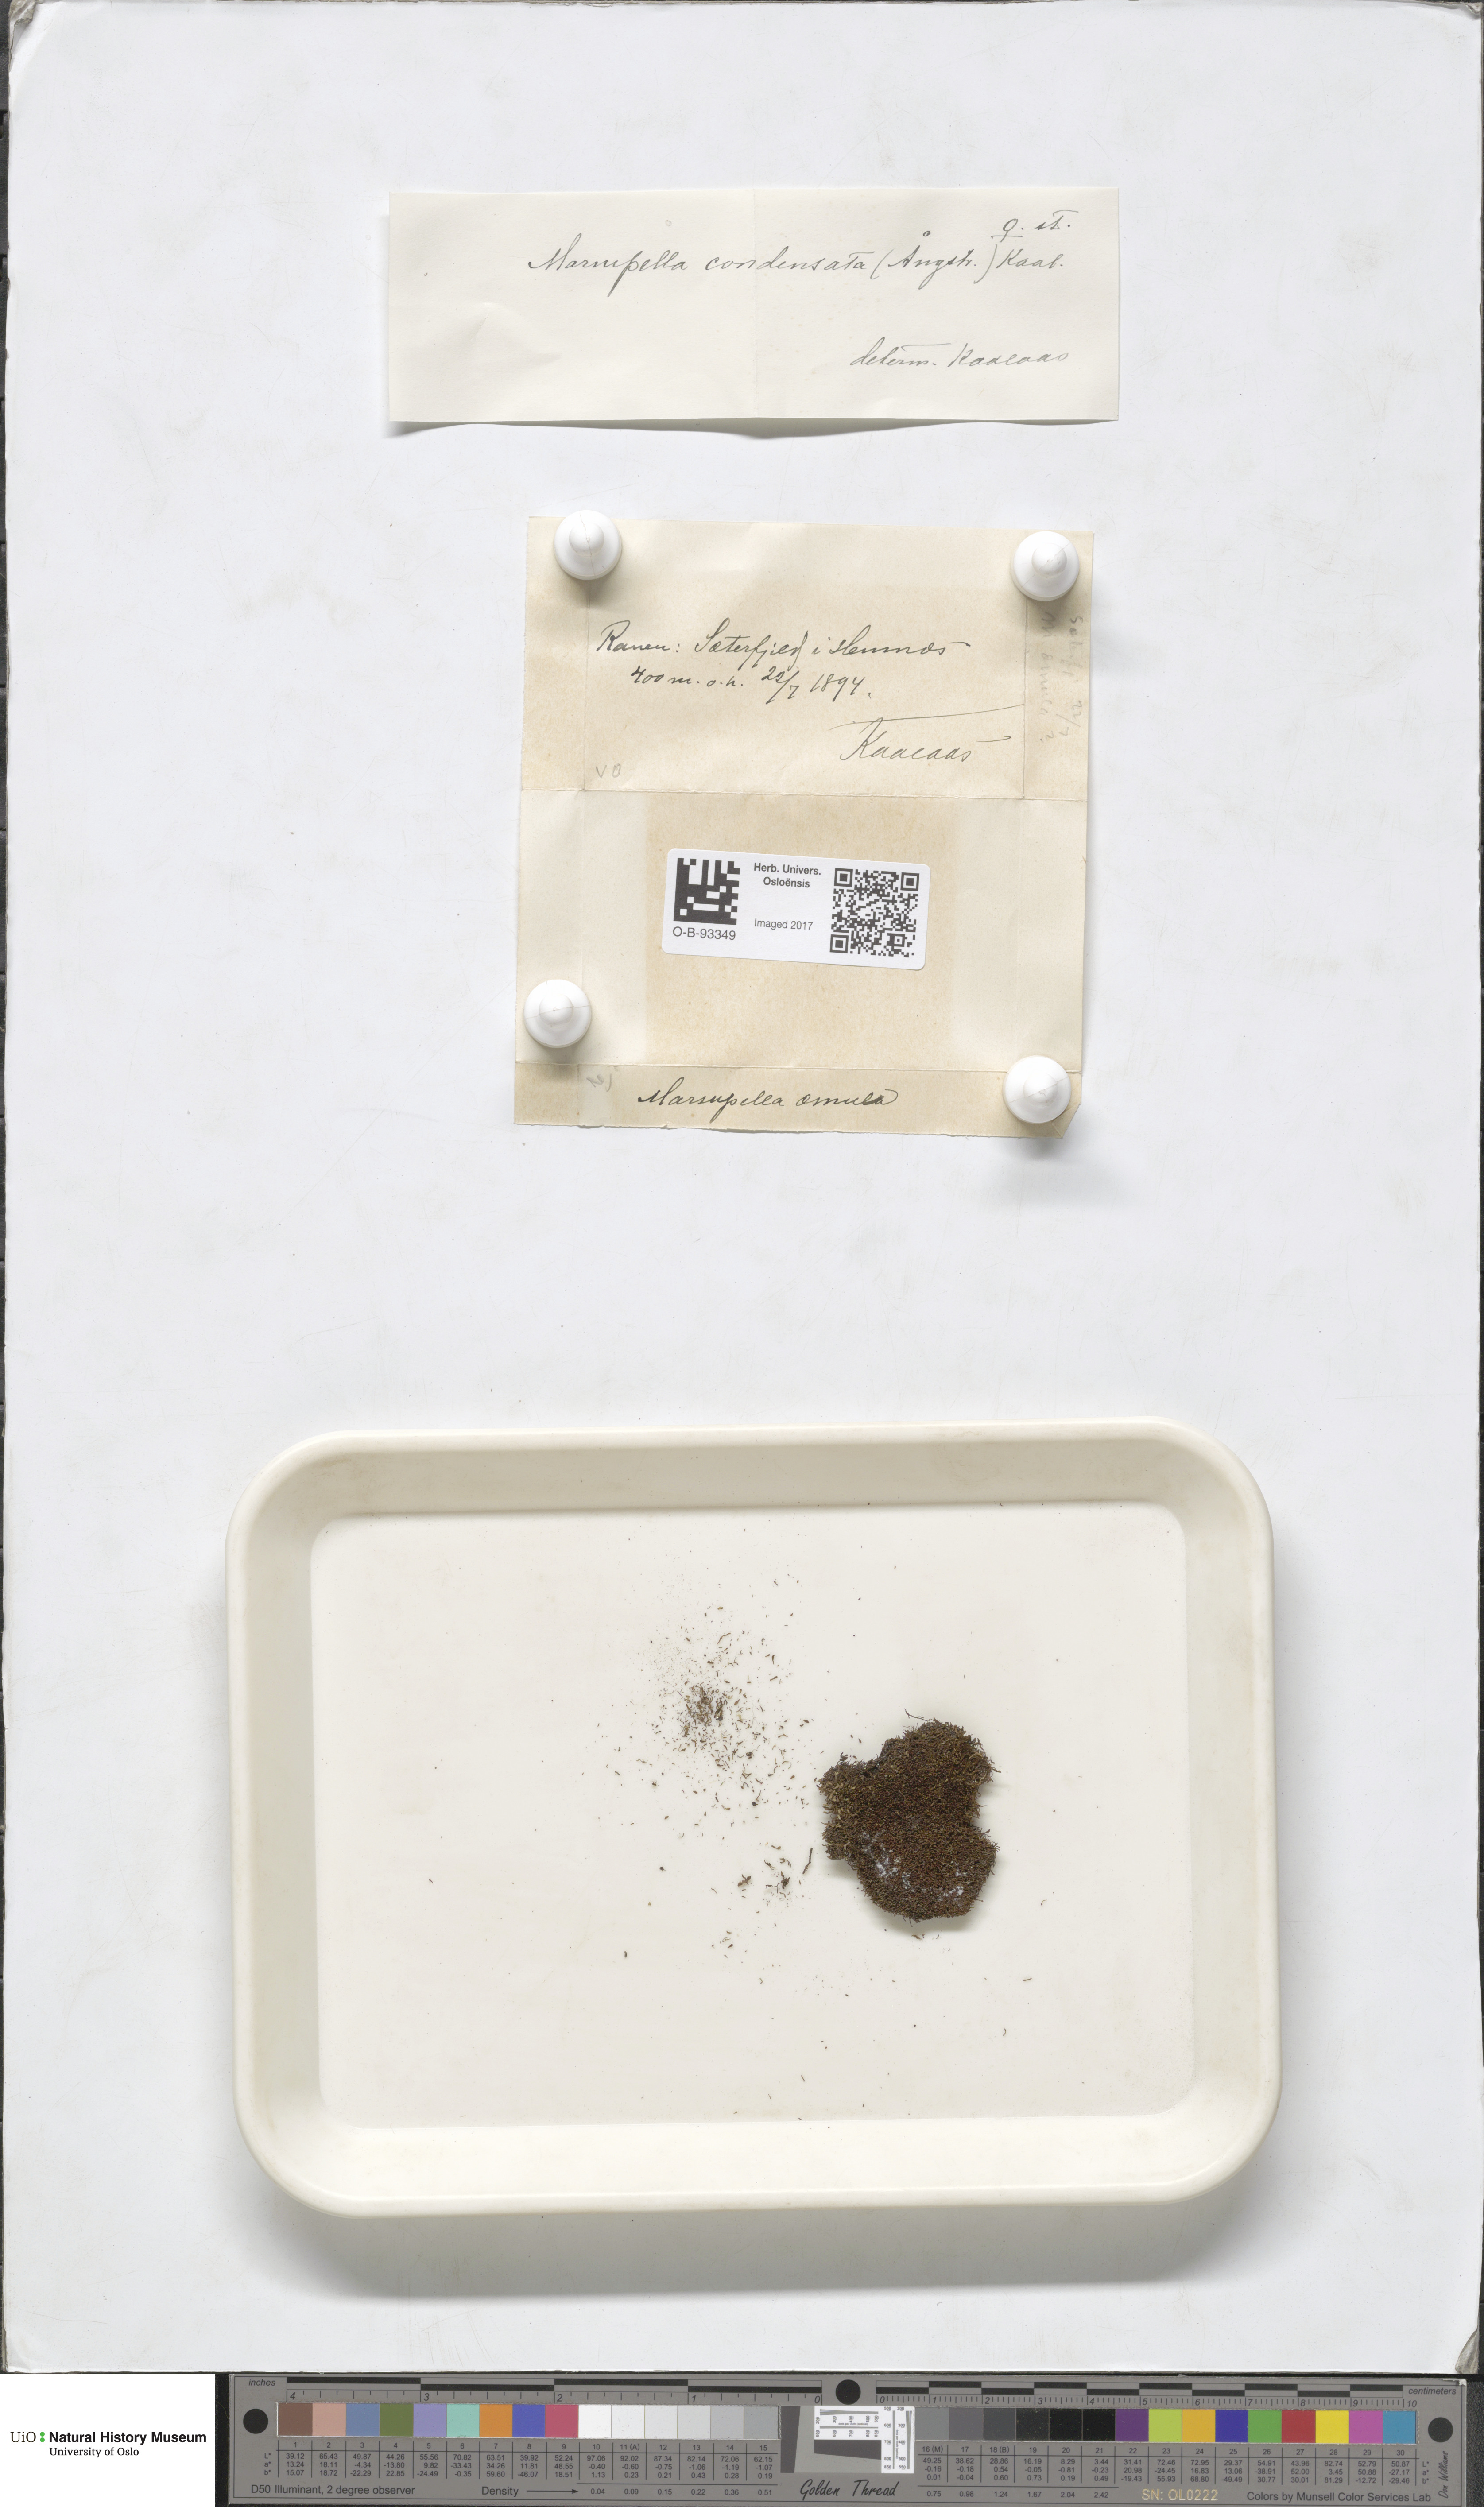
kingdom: Plantae
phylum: Marchantiophyta
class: Jungermanniopsida
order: Jungermanniales
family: Gymnomitriaceae
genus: Gymnomitrion
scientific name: Gymnomitrion brevissimum
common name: Snow rustwort
